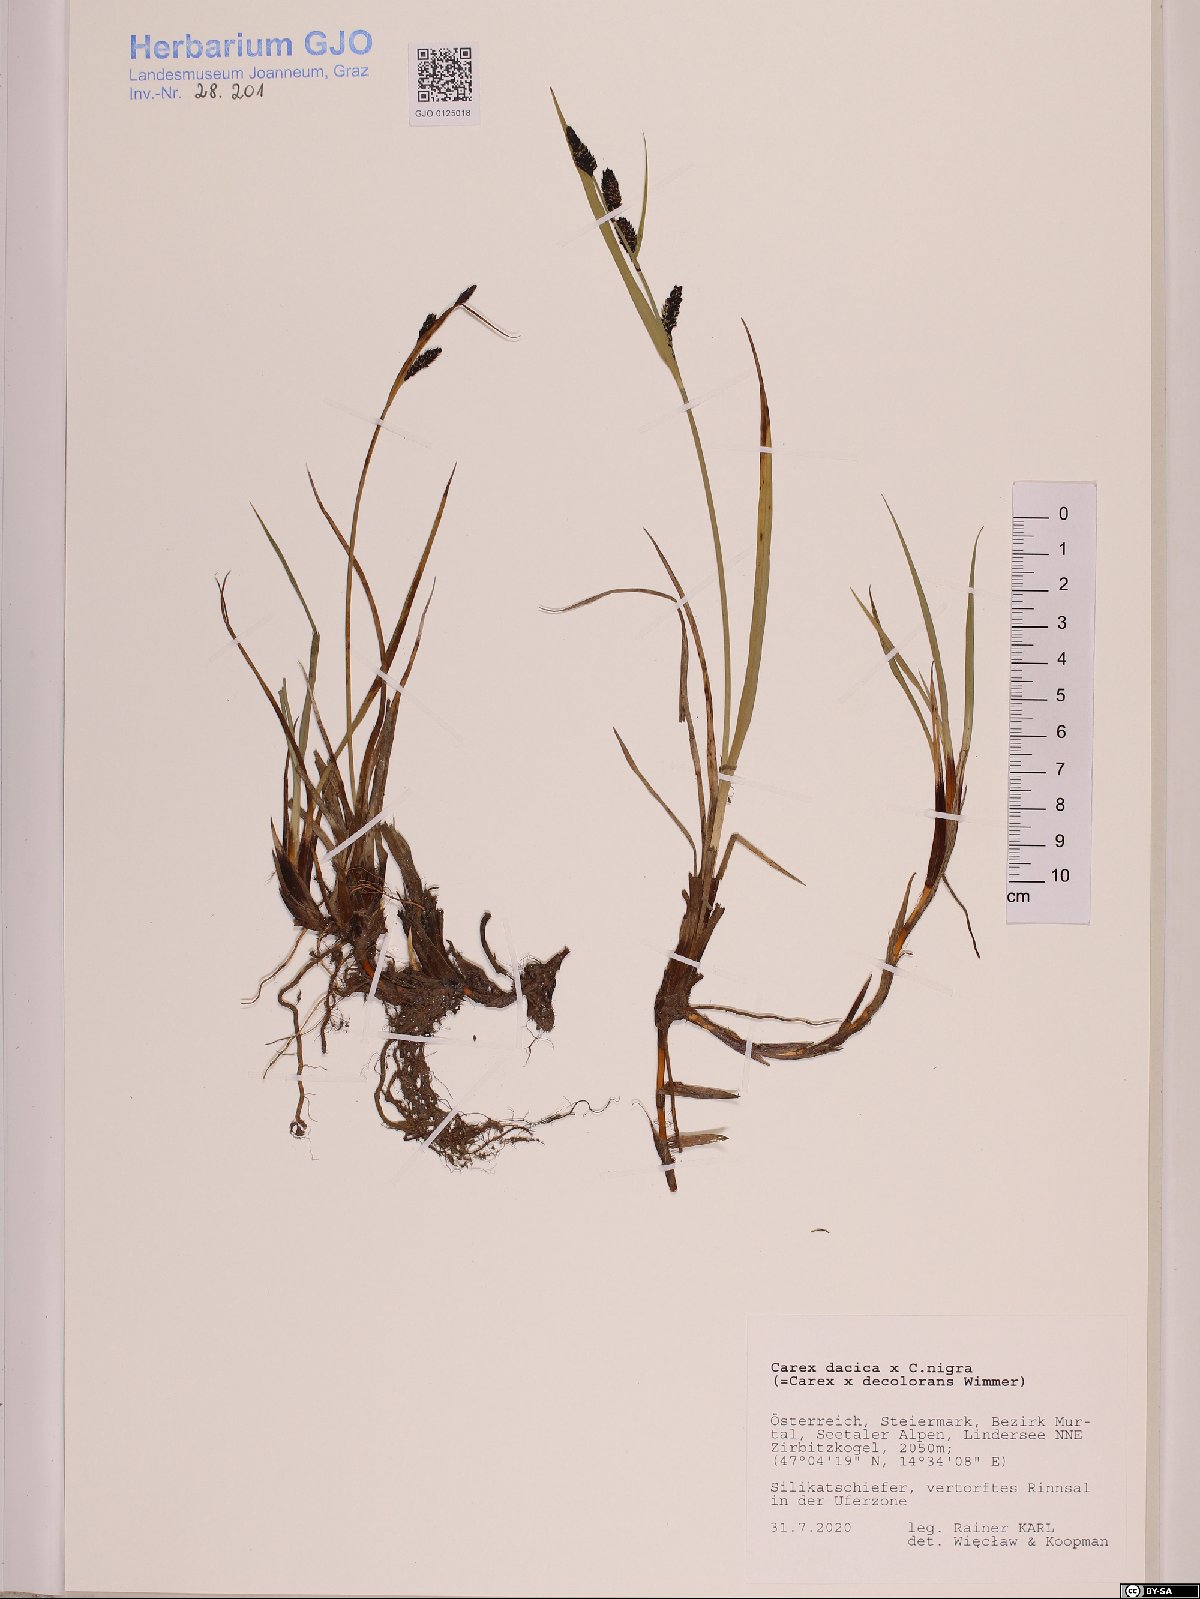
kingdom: Plantae
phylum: Tracheophyta
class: Liliopsida
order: Poales
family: Cyperaceae
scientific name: Cyperaceae
